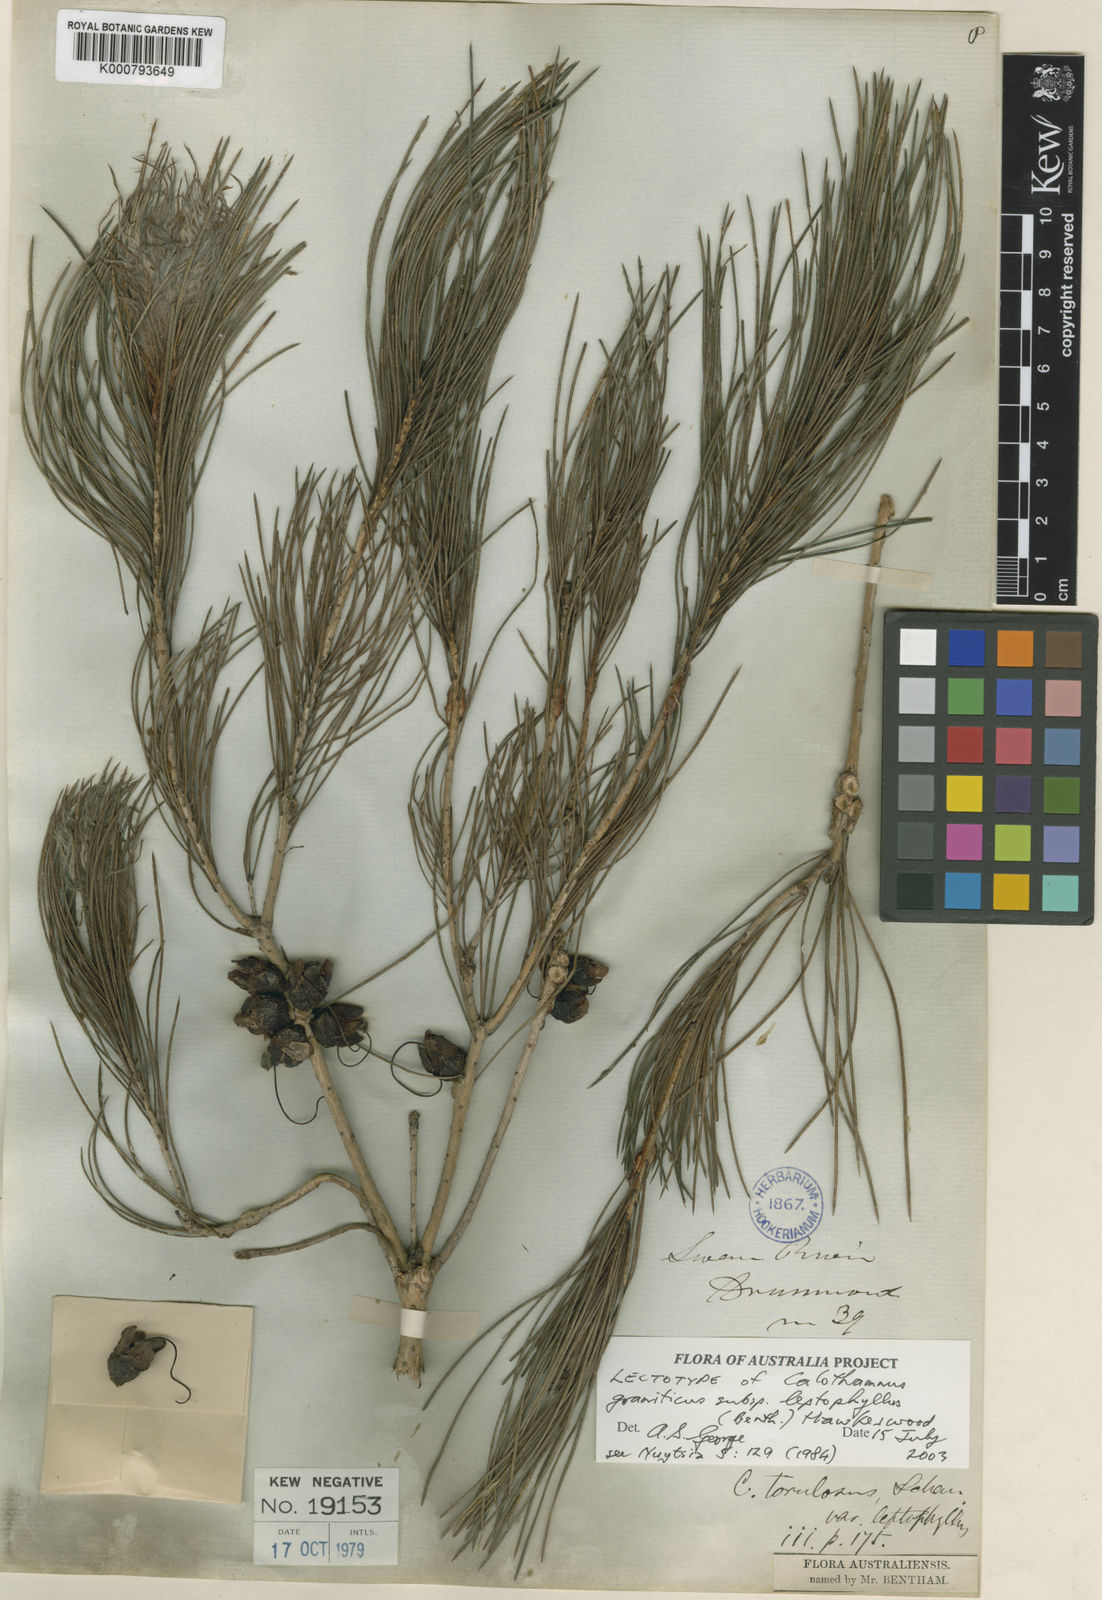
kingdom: Plantae
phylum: Tracheophyta
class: Magnoliopsida
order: Myrtales
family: Myrtaceae
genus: Melaleuca
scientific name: Melaleuca granitica
